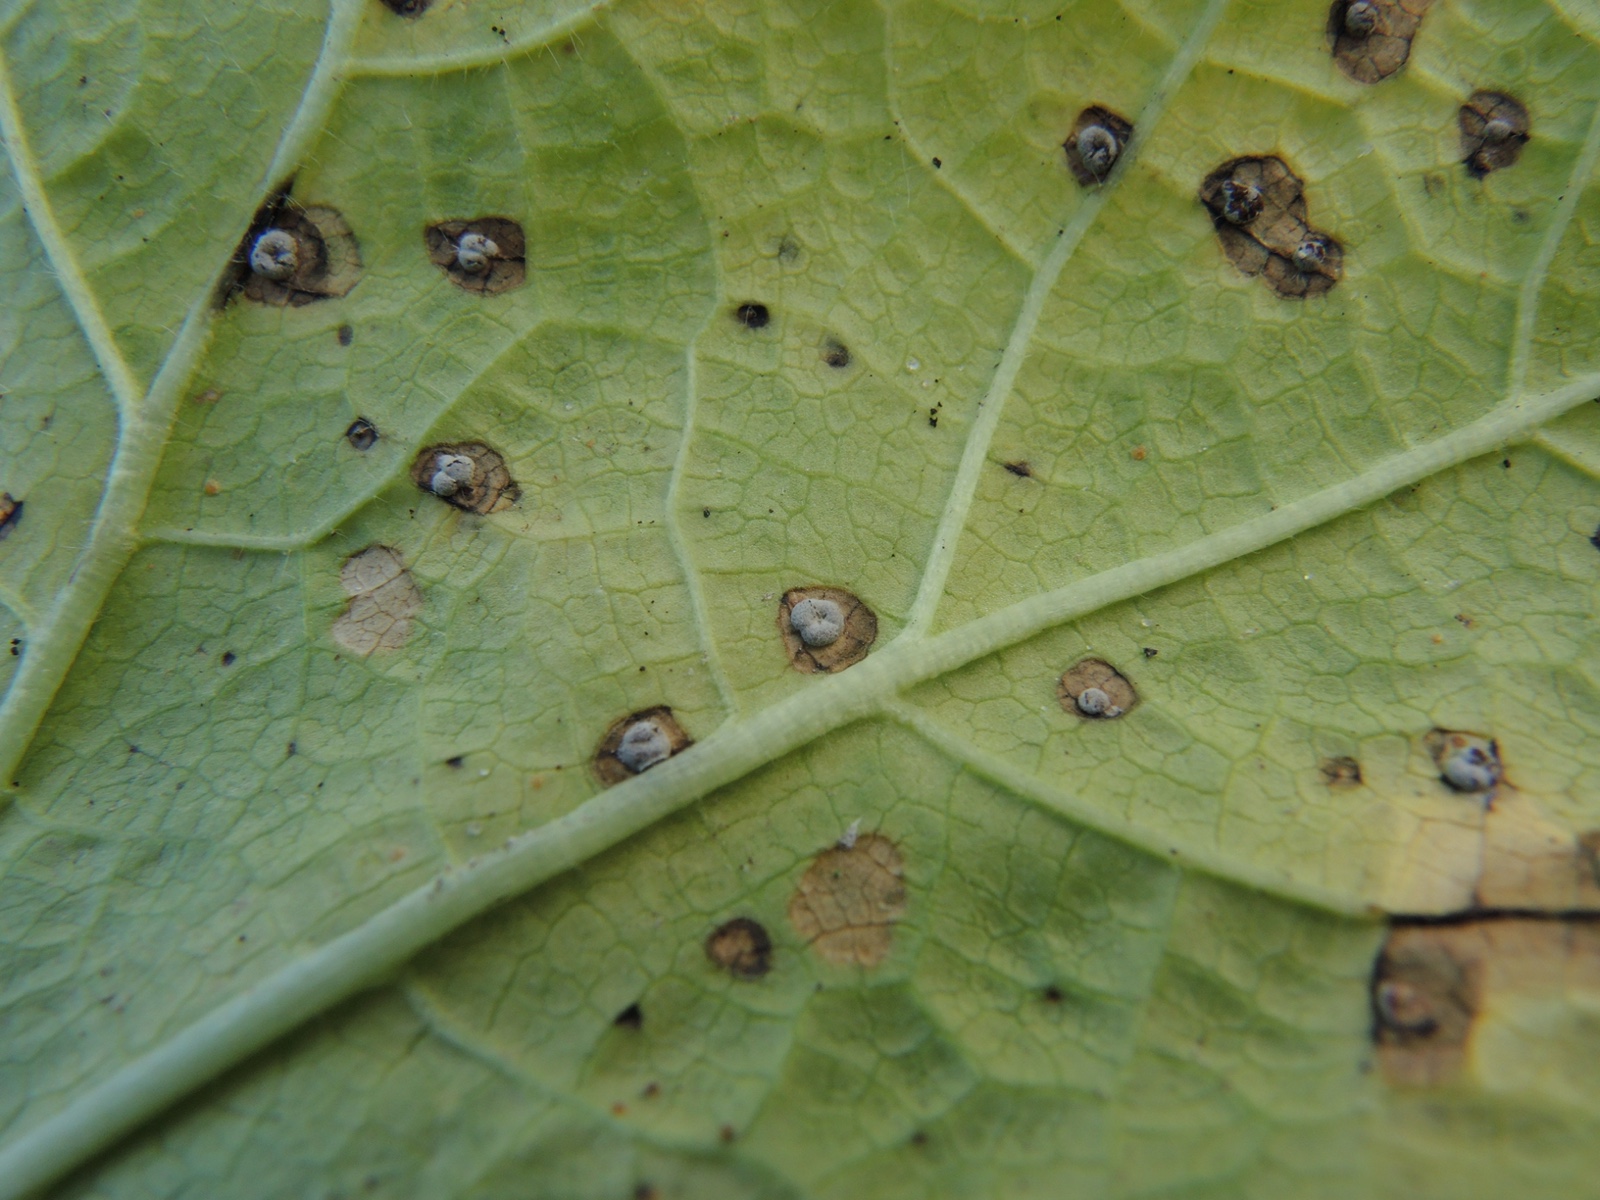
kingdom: Fungi
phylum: Basidiomycota
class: Pucciniomycetes
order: Pucciniales
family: Pucciniaceae
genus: Puccinia
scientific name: Puccinia malvacearum
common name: stokrose-tvecellerust
